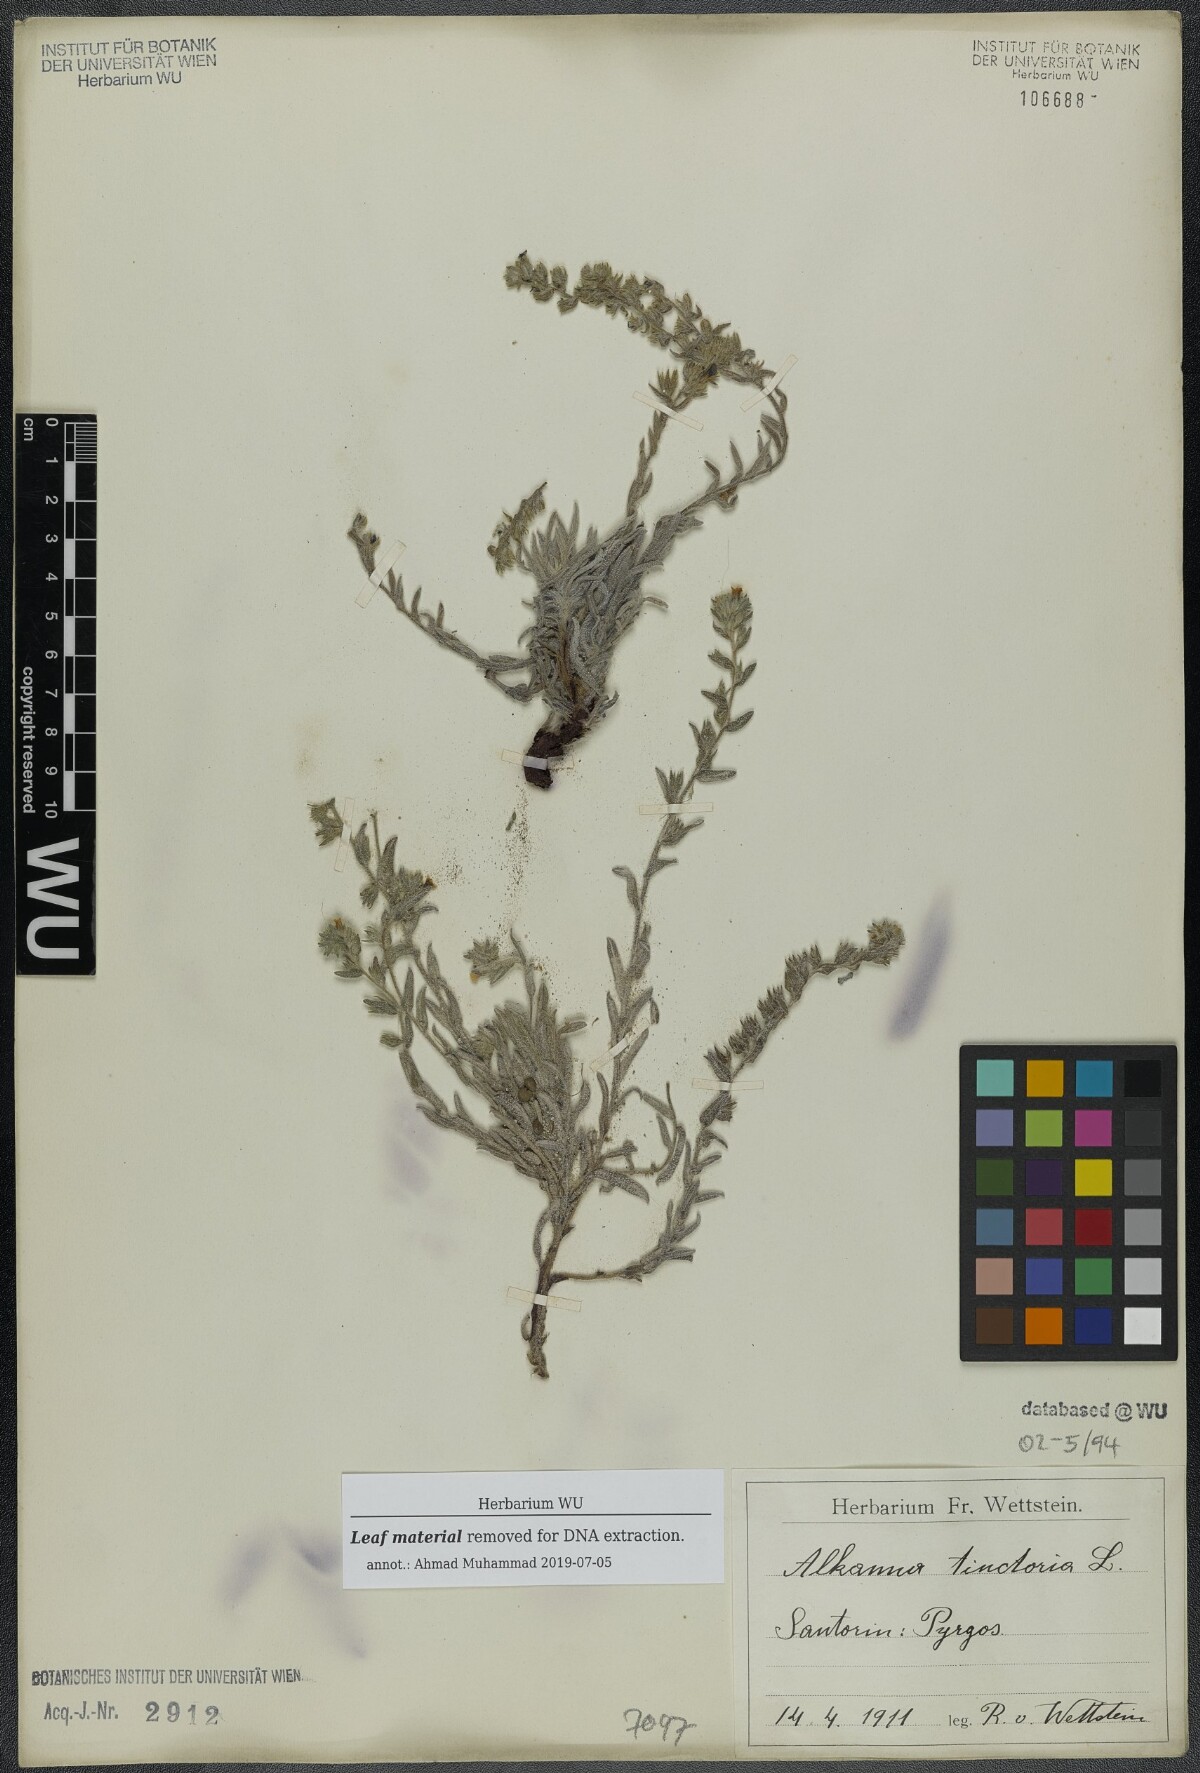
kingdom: Plantae
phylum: Tracheophyta
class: Magnoliopsida
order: Boraginales
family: Boraginaceae
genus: Alkanna
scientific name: Alkanna tinctoria
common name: Dyer's-alkanet
